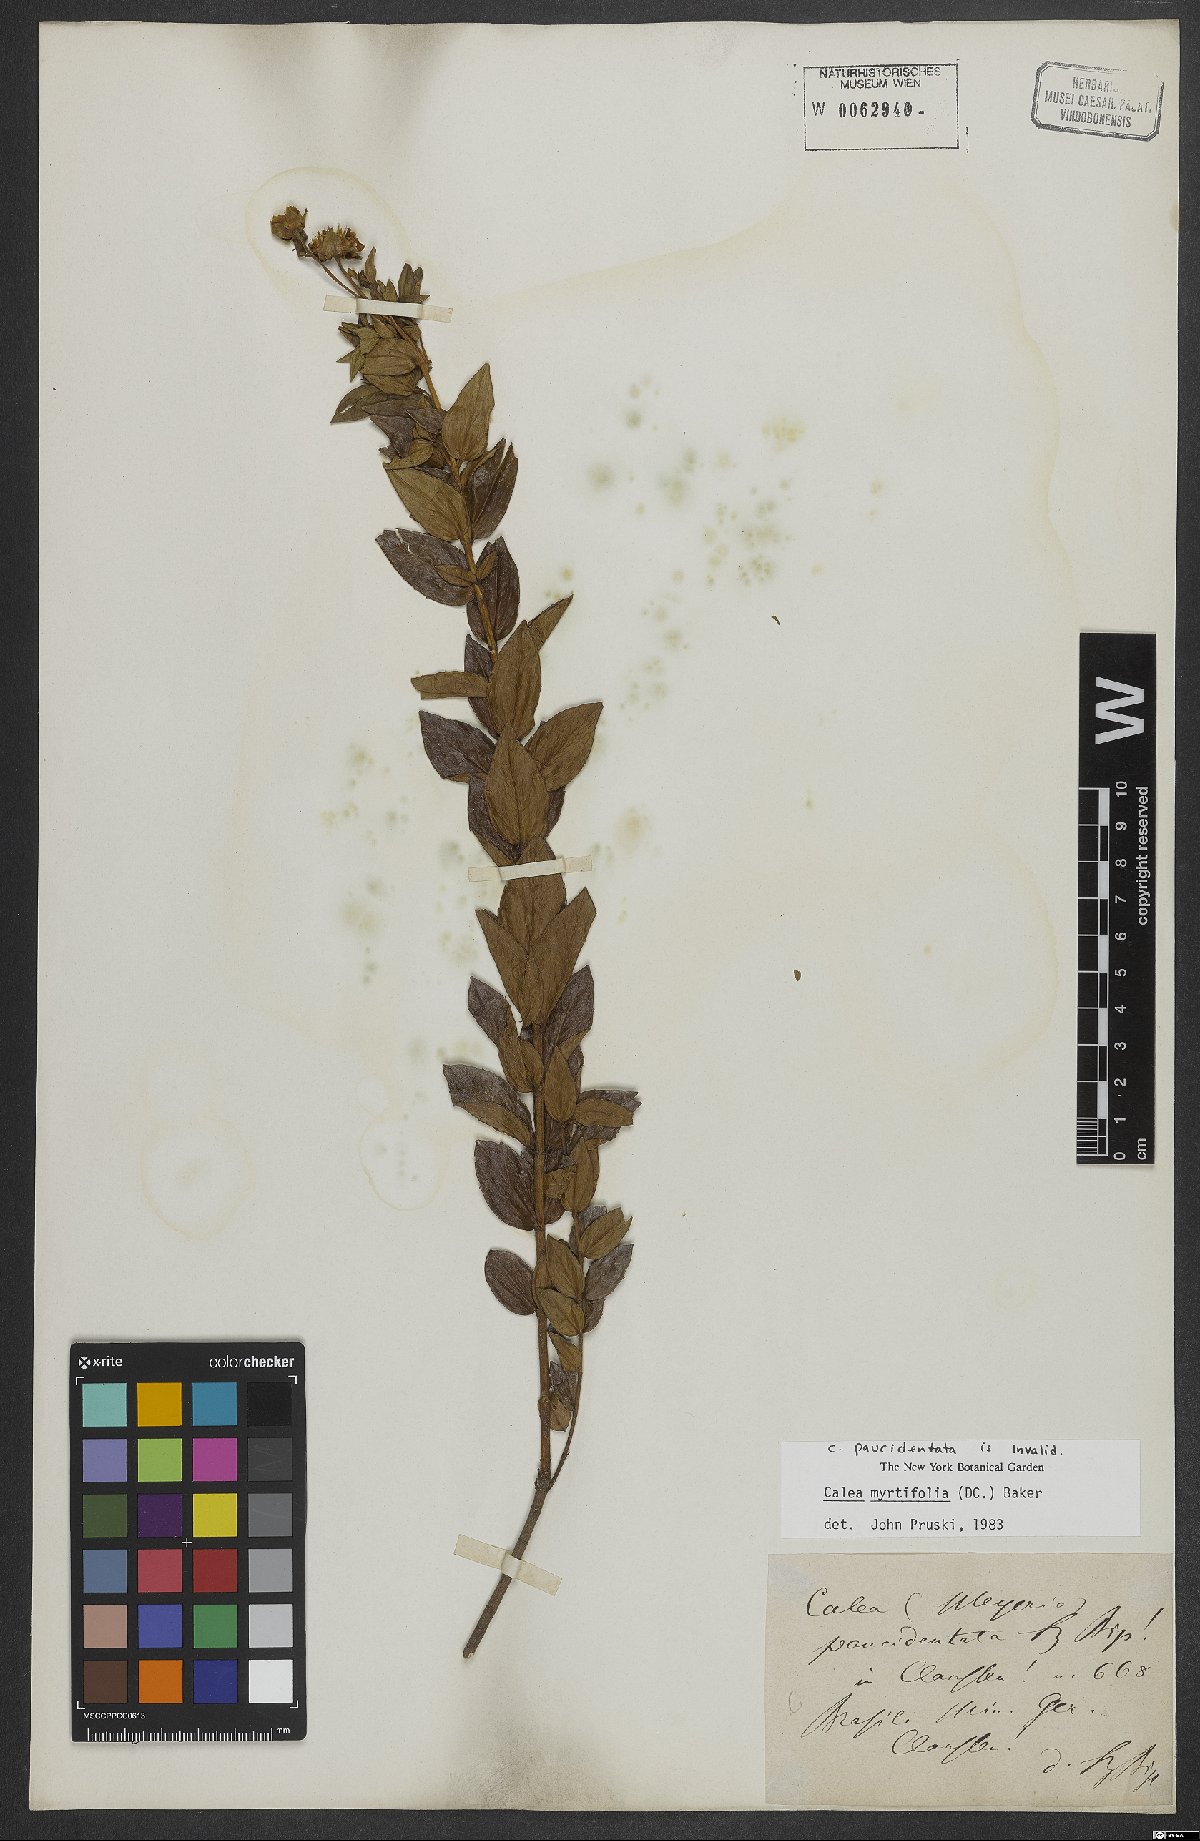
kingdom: Plantae
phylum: Tracheophyta
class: Magnoliopsida
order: Asterales
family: Asteraceae
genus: Calea
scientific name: Calea myrtifolia
